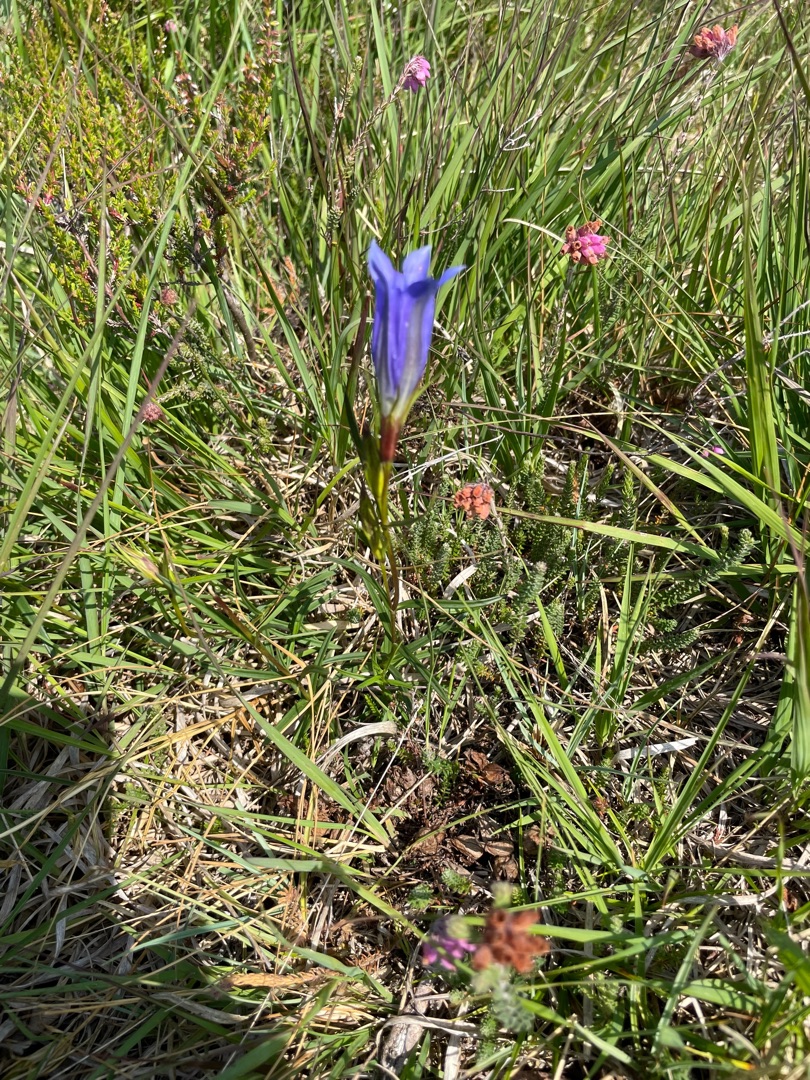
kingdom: Plantae
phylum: Tracheophyta
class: Magnoliopsida
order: Gentianales
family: Gentianaceae
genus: Gentiana
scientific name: Gentiana pneumonanthe
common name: Klokke-ensian
